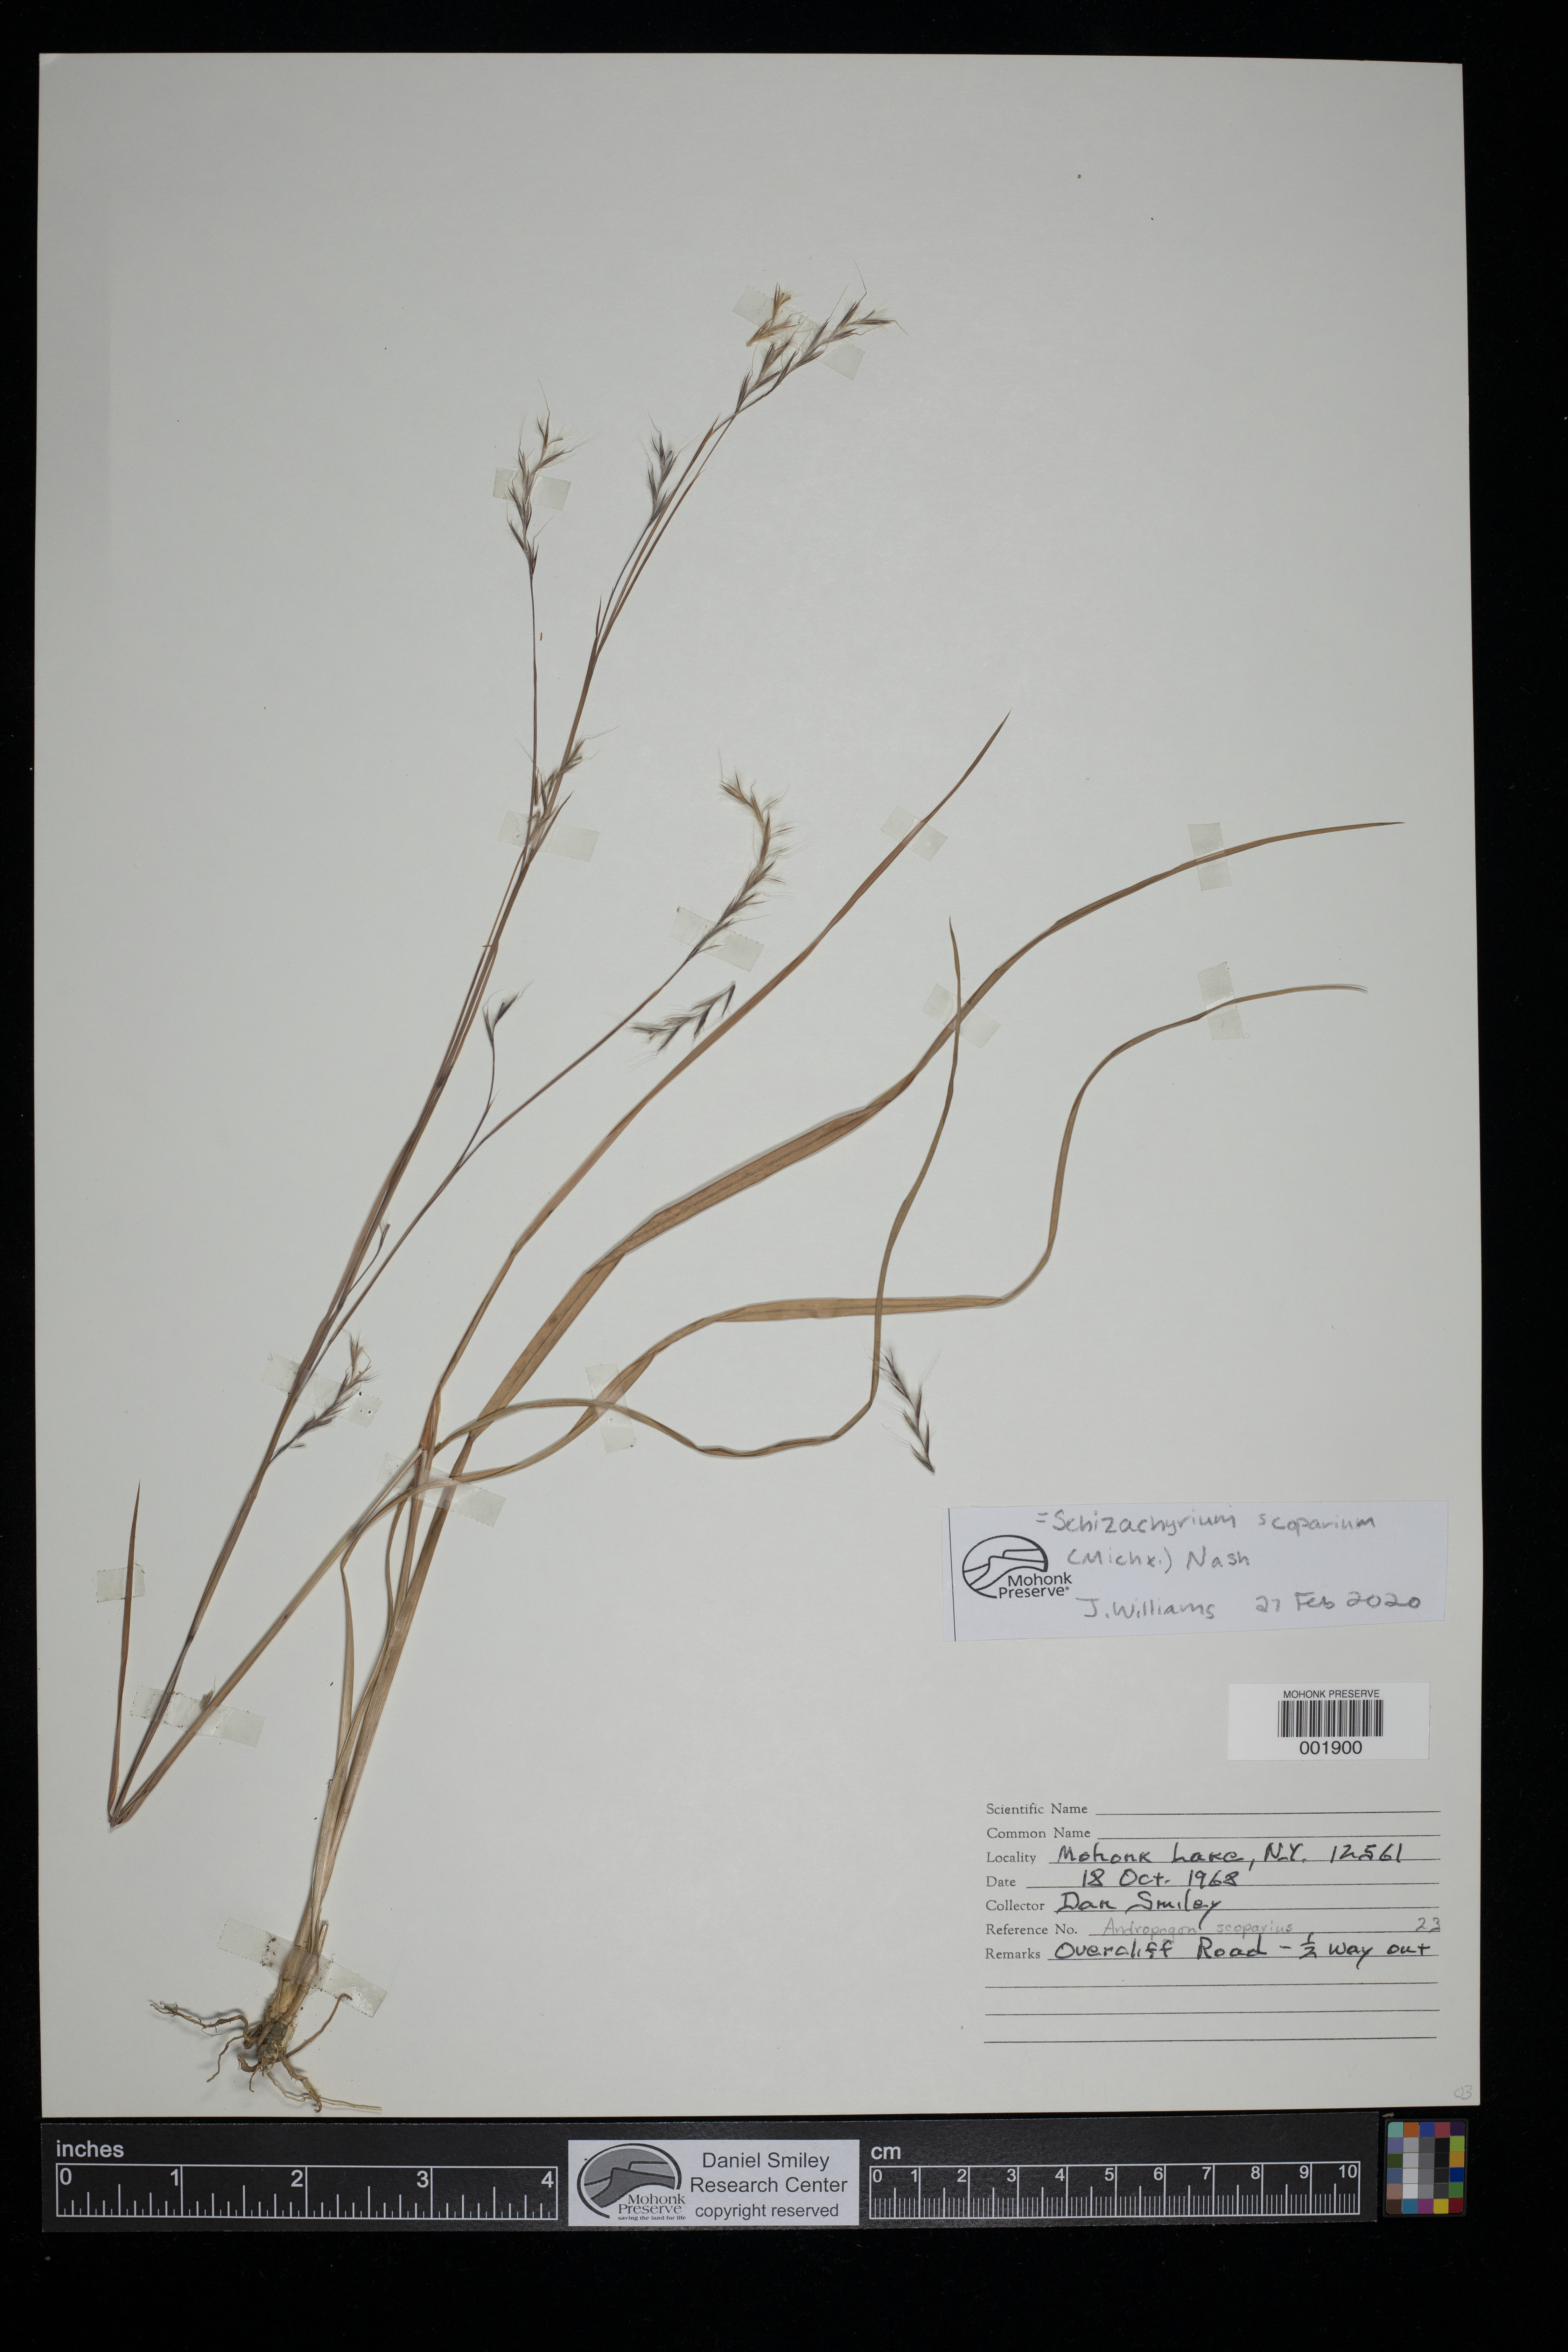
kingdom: Plantae
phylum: Tracheophyta
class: Liliopsida
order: Poales
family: Poaceae
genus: Schizachyrium
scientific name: Schizachyrium scoparium
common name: Little bluestem
